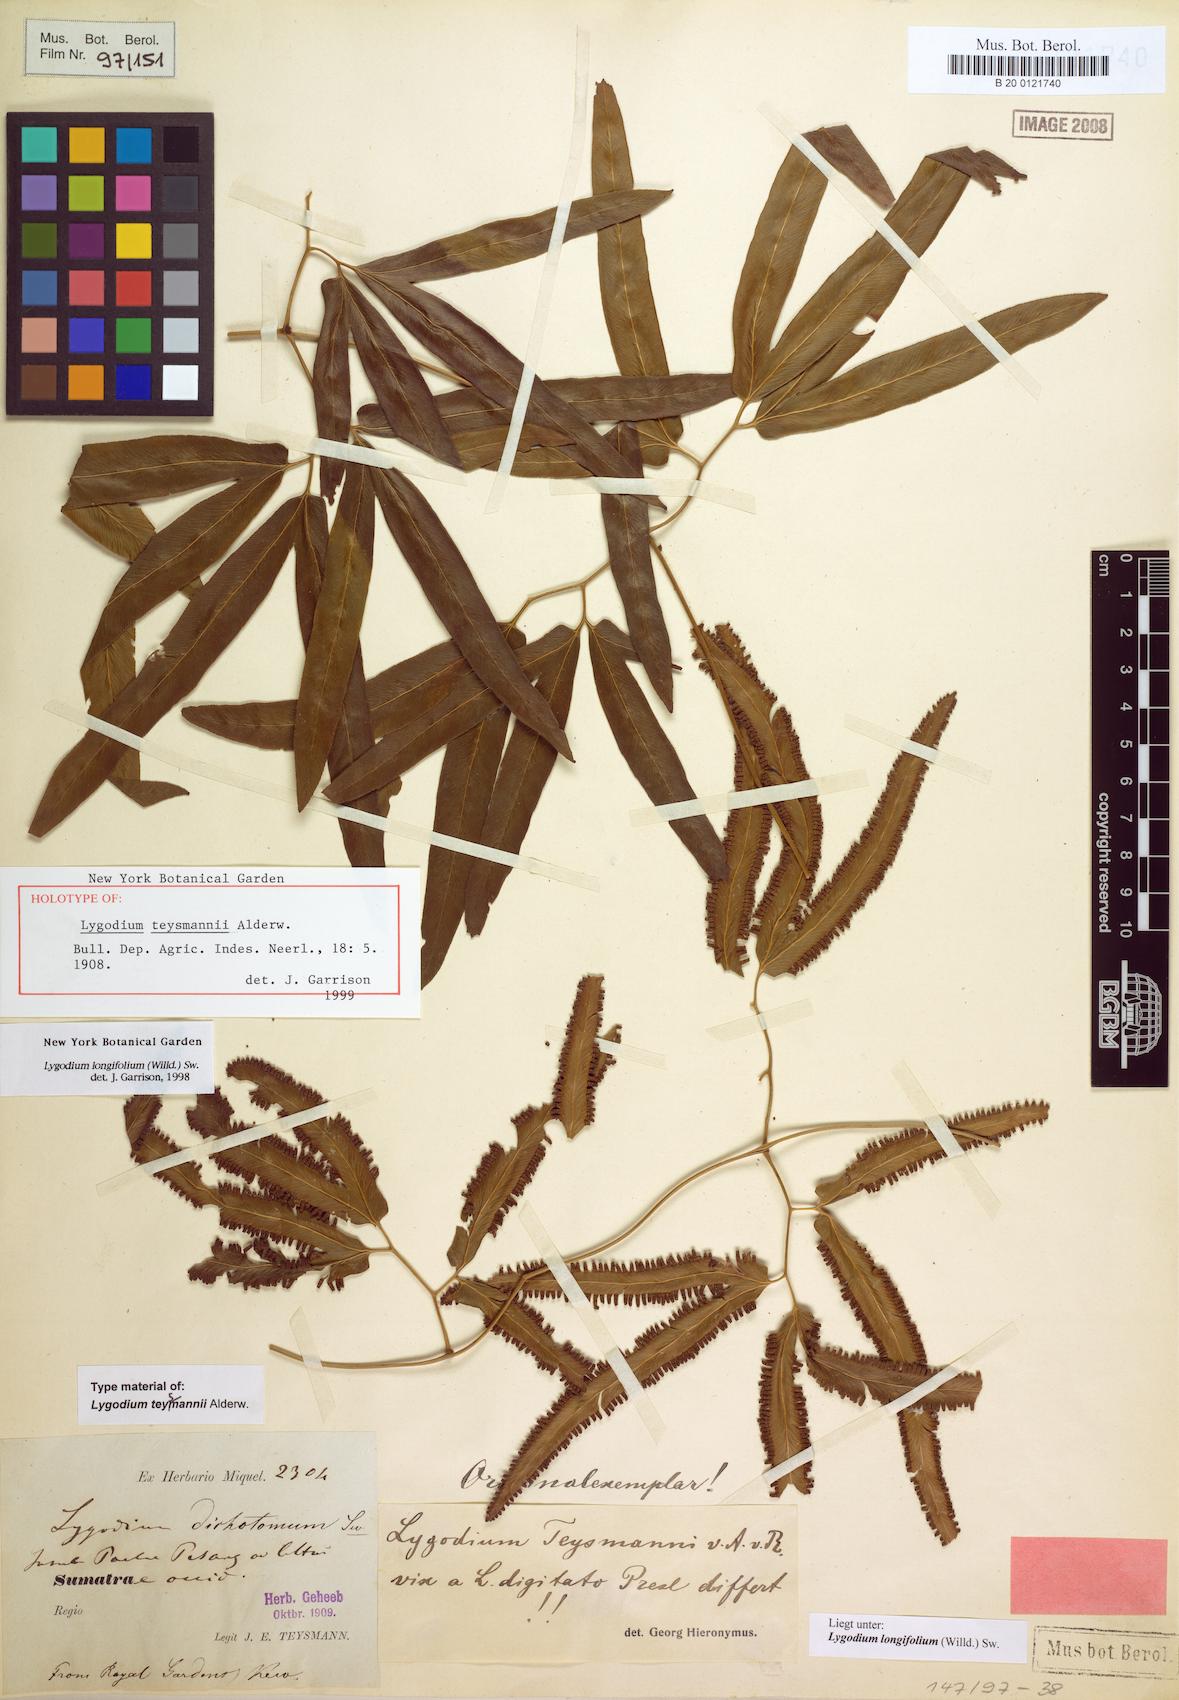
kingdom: Plantae
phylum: Tracheophyta
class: Polypodiopsida
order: Schizaeales
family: Lygodiaceae
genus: Lygodium
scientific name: Lygodium longifolium
